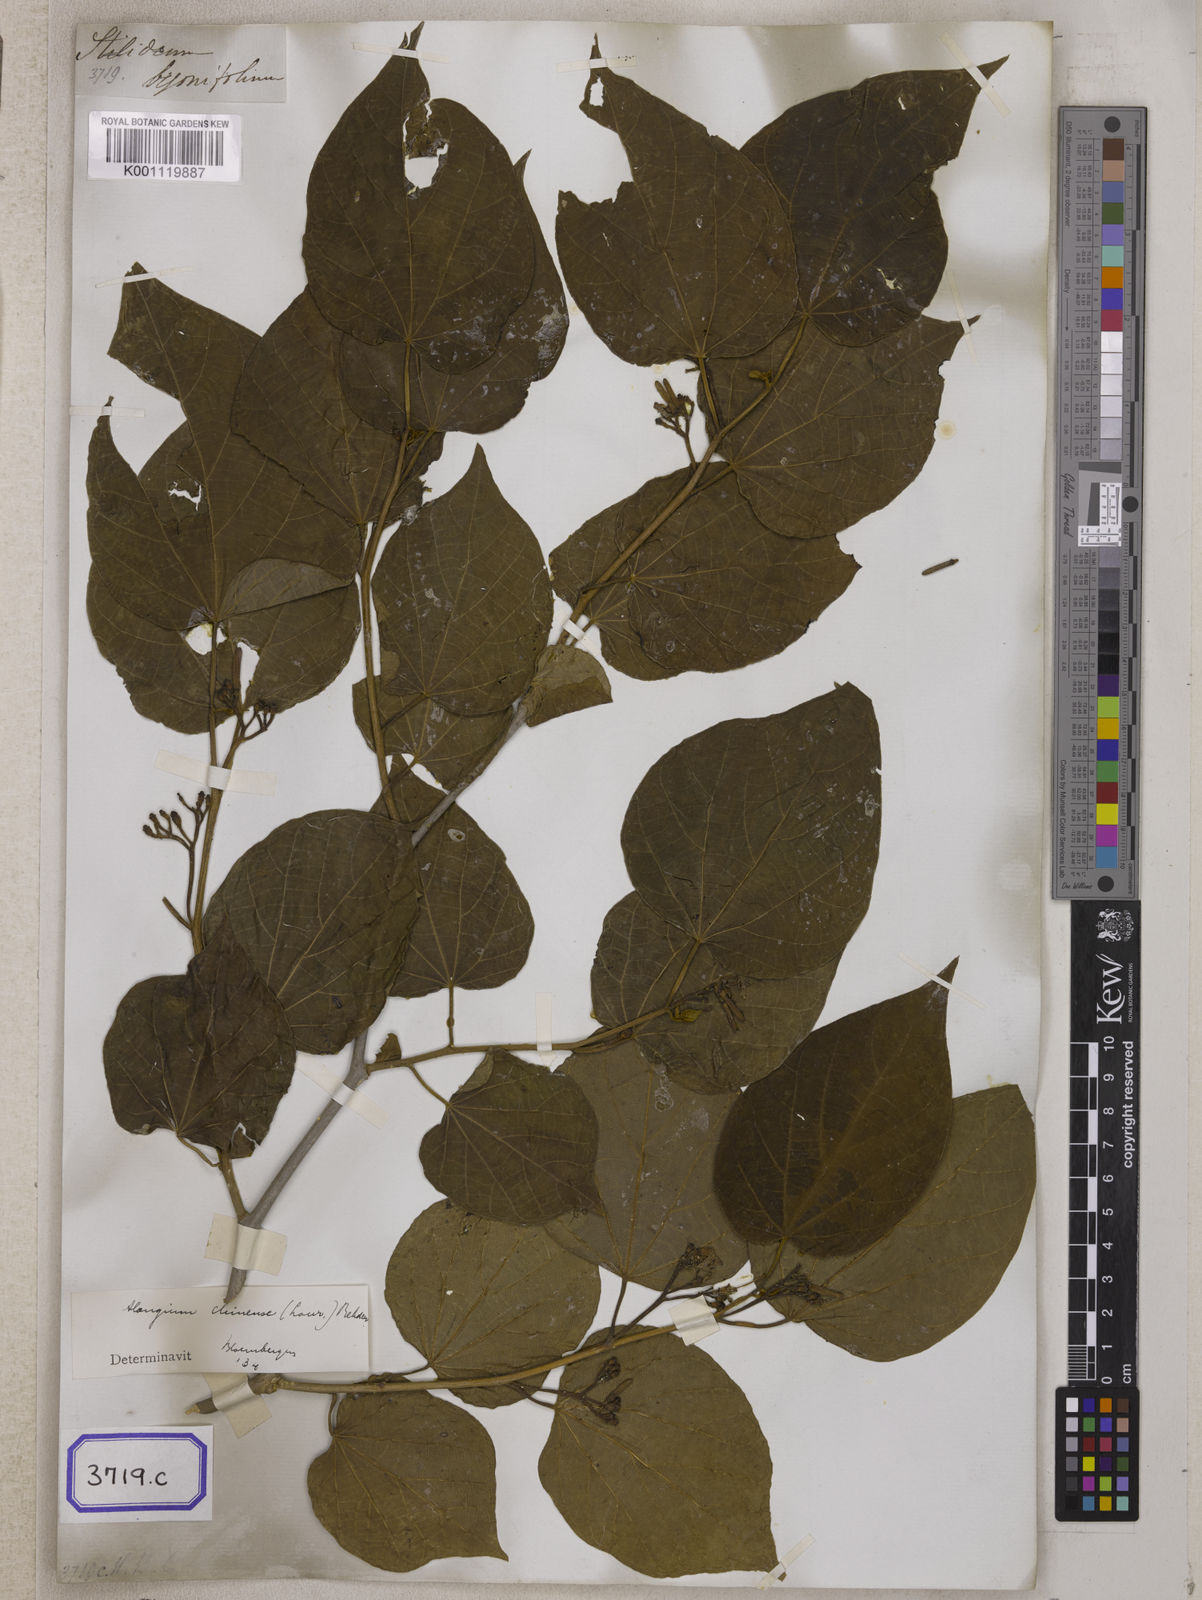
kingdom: Plantae
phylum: Tracheophyta
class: Magnoliopsida
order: Cornales
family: Cornaceae
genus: Alangium
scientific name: Alangium chinense
